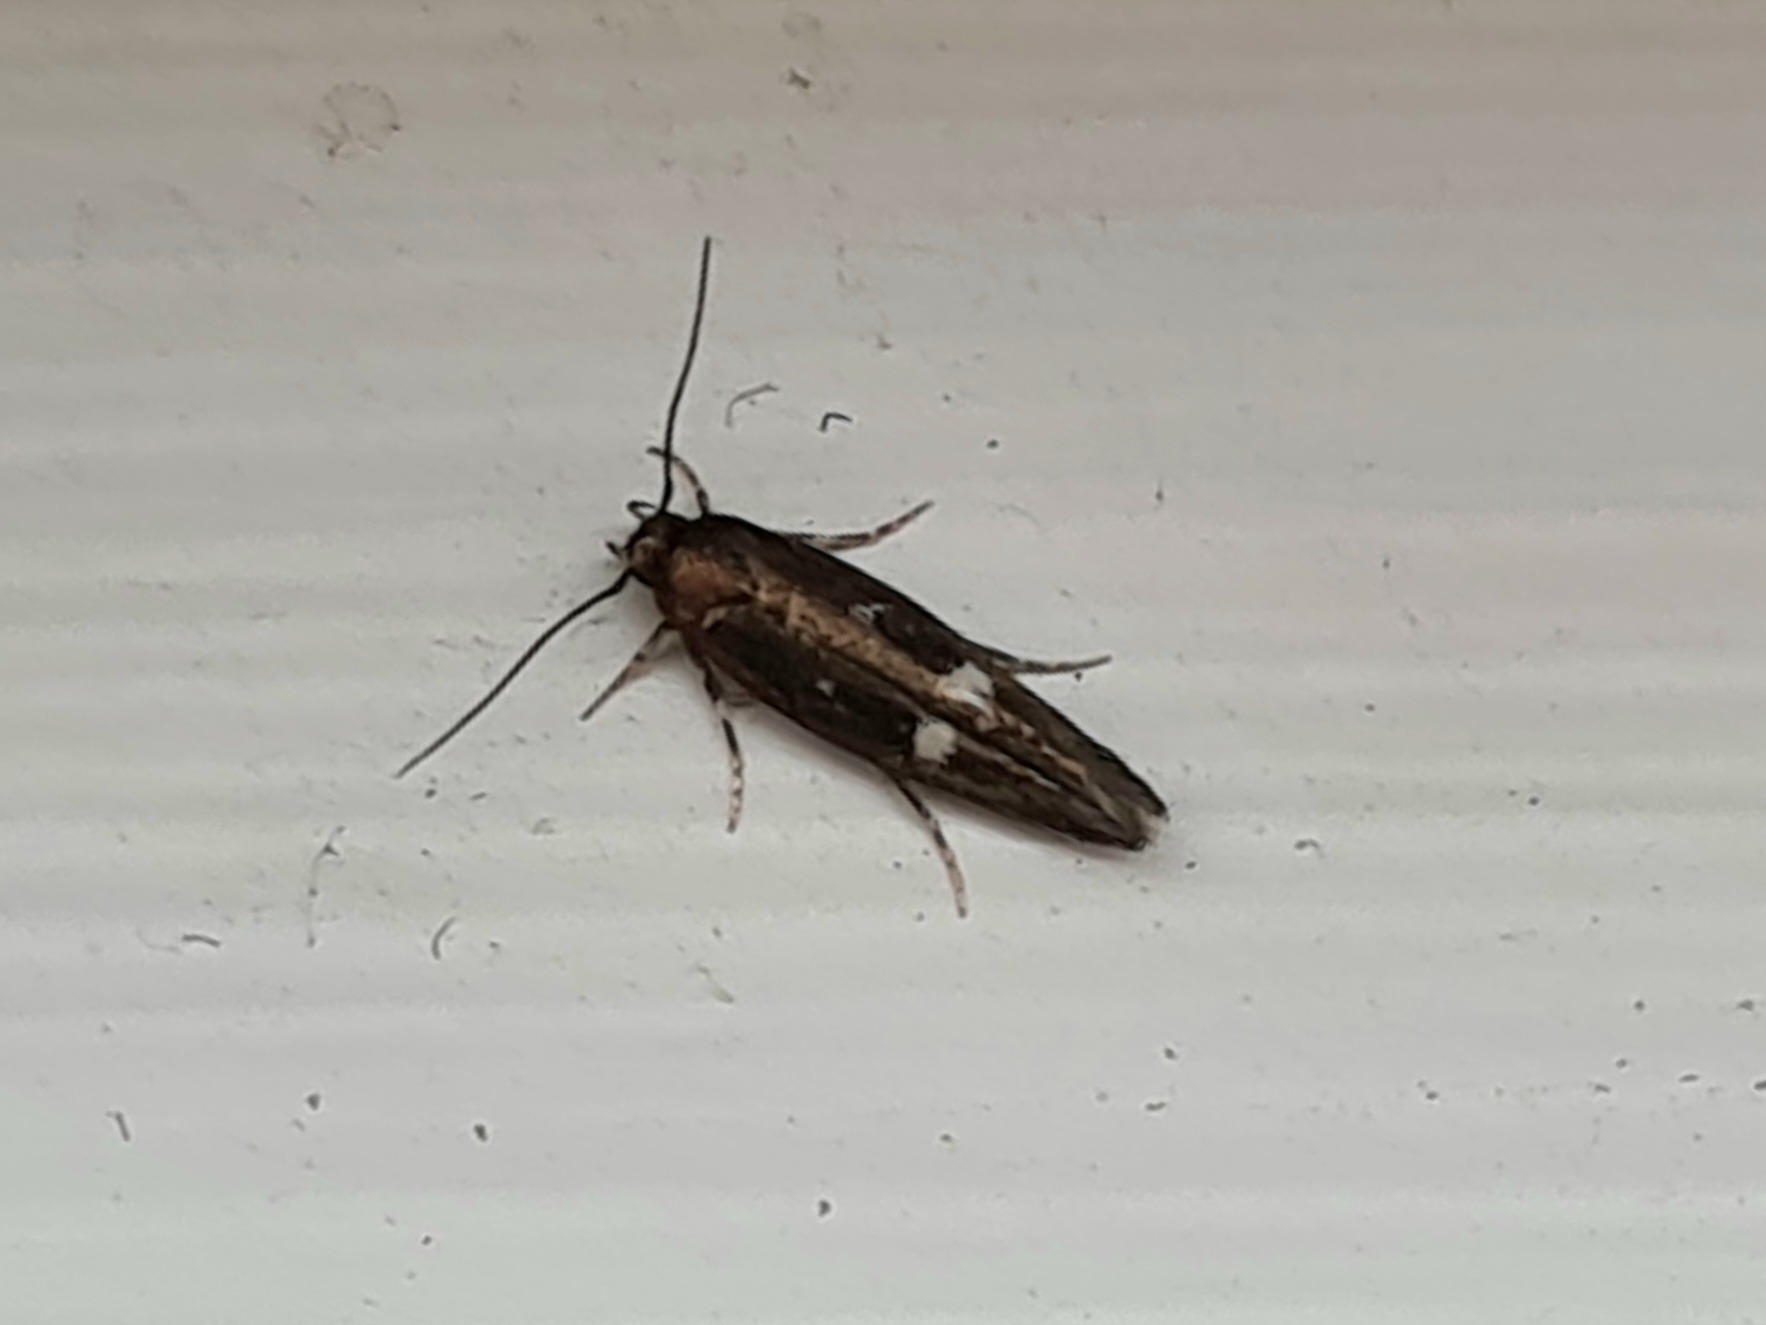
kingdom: Animalia
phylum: Arthropoda
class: Insecta
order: Lepidoptera
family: Momphidae
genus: Mompha
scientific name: Mompha langiella
